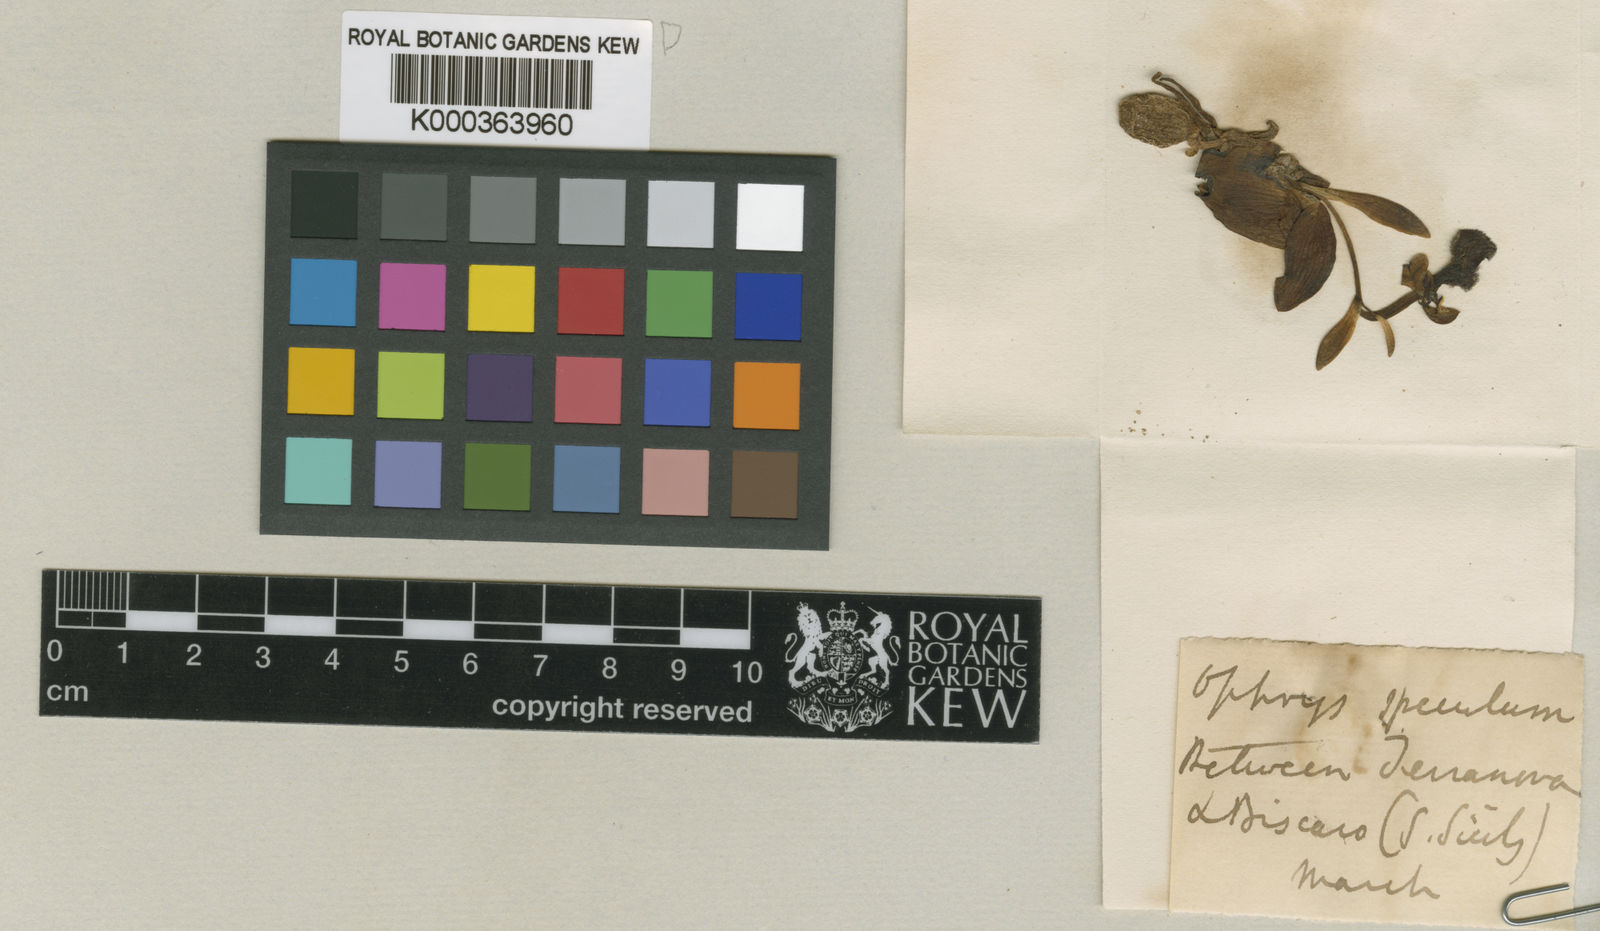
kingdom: Plantae
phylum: Tracheophyta
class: Liliopsida
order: Asparagales
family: Orchidaceae
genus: Ophrys
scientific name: Ophrys
